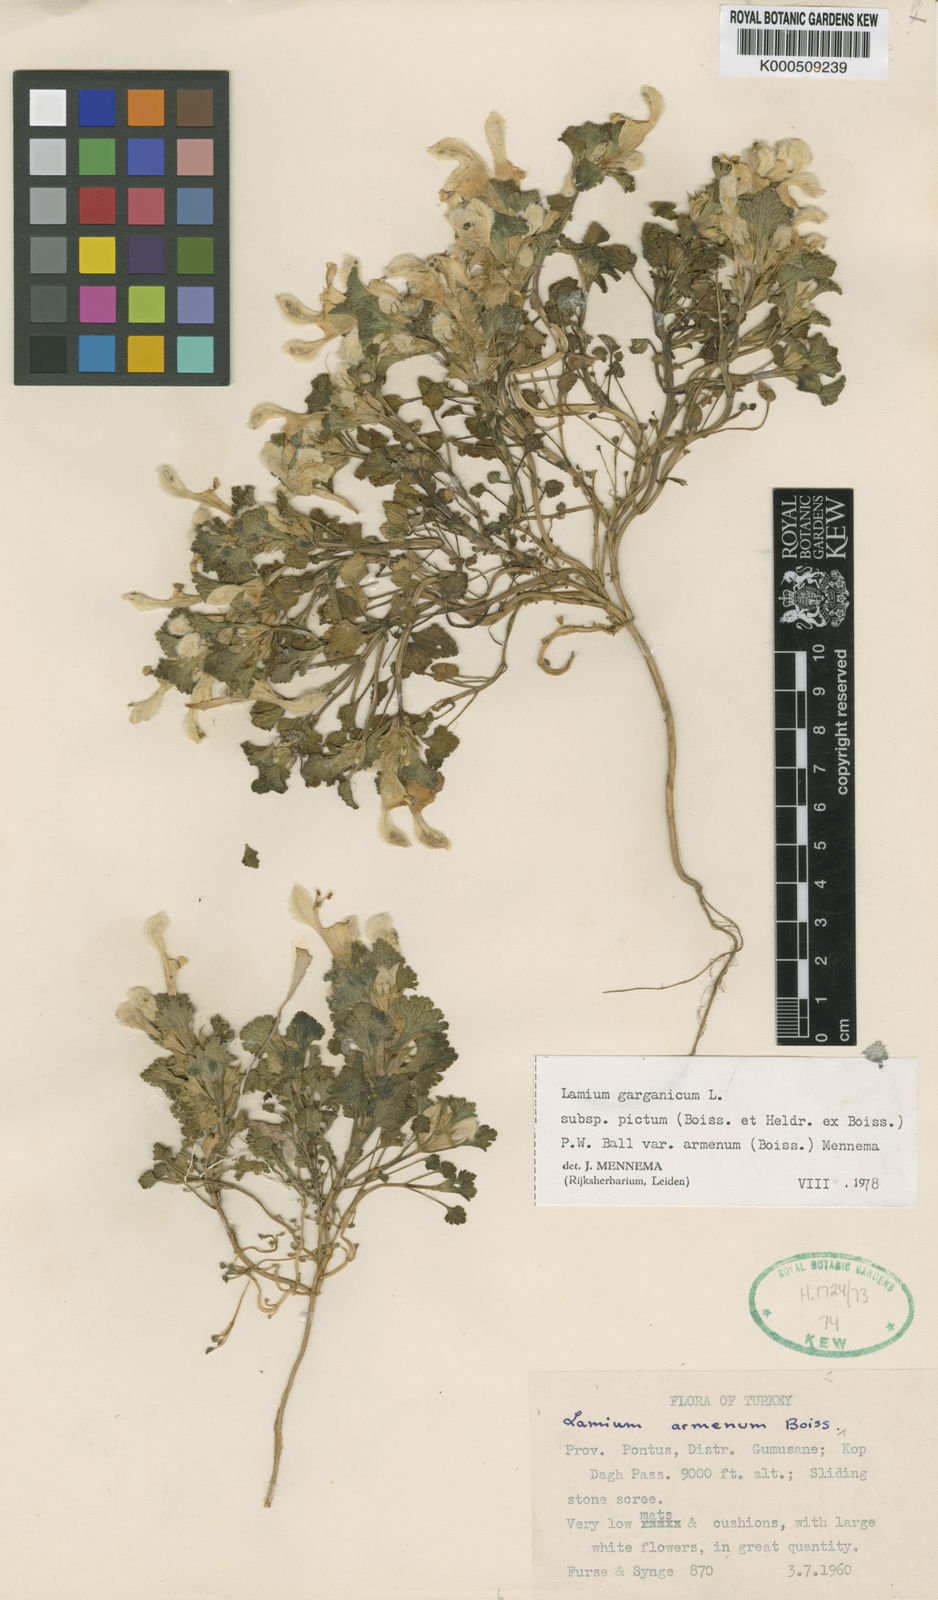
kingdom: Plantae
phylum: Tracheophyta
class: Magnoliopsida
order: Lamiales
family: Lamiaceae
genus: Lamium
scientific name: Lamium garganicum
